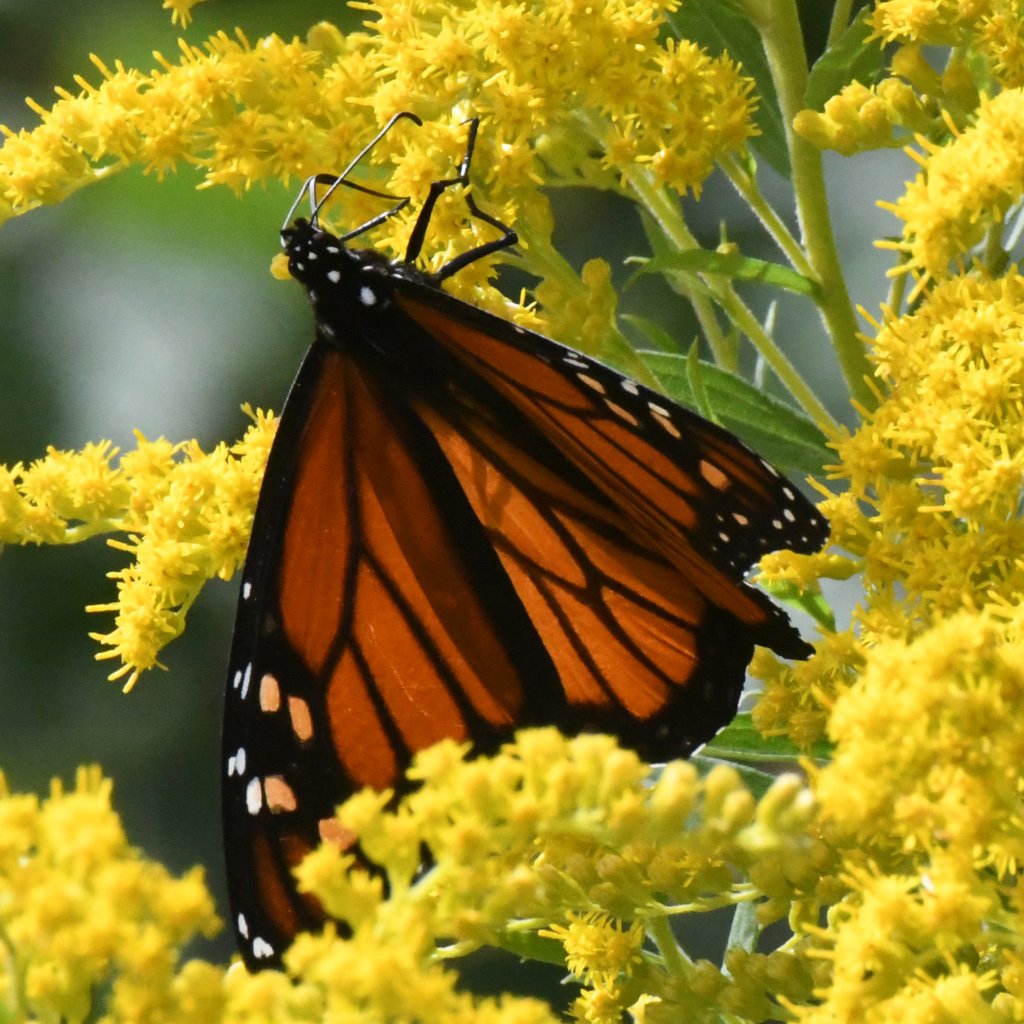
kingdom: Animalia
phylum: Arthropoda
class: Insecta
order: Lepidoptera
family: Nymphalidae
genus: Danaus
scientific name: Danaus plexippus
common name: Monarch
